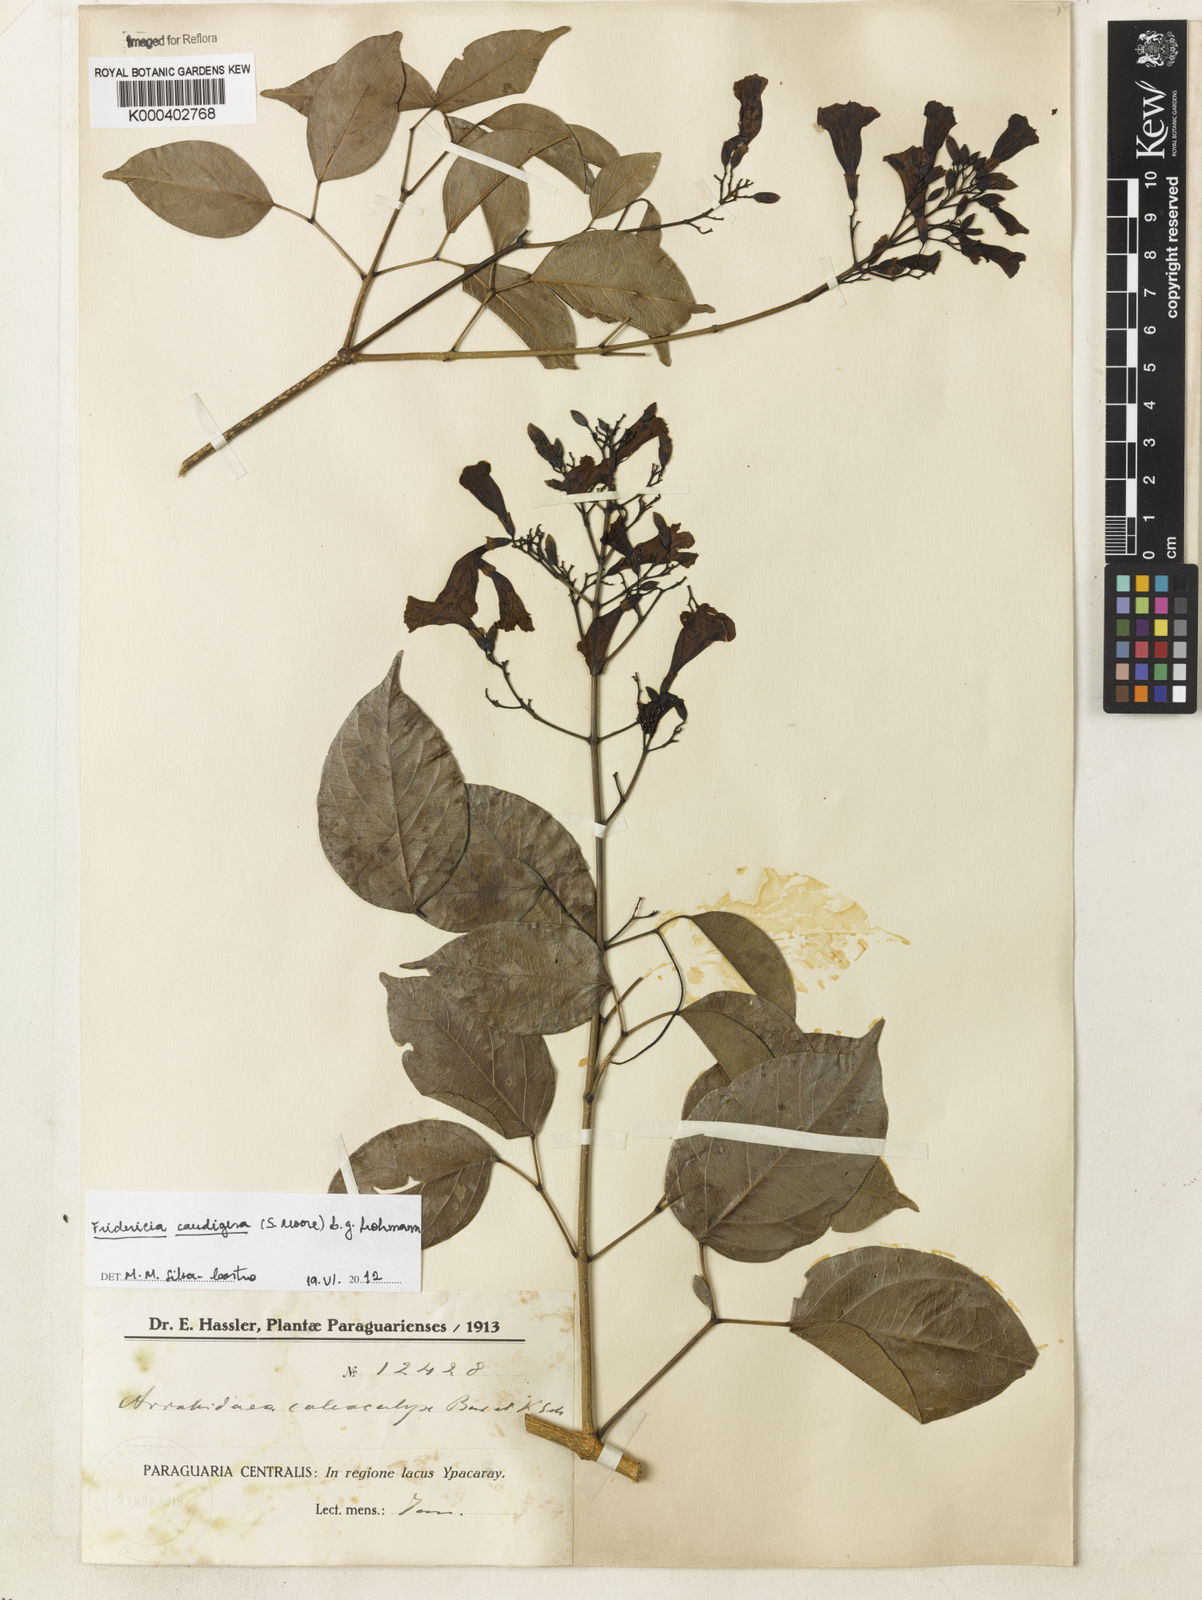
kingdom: Plantae
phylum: Tracheophyta
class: Magnoliopsida
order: Lamiales
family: Bignoniaceae
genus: Fridericia
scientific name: Fridericia caudigera
